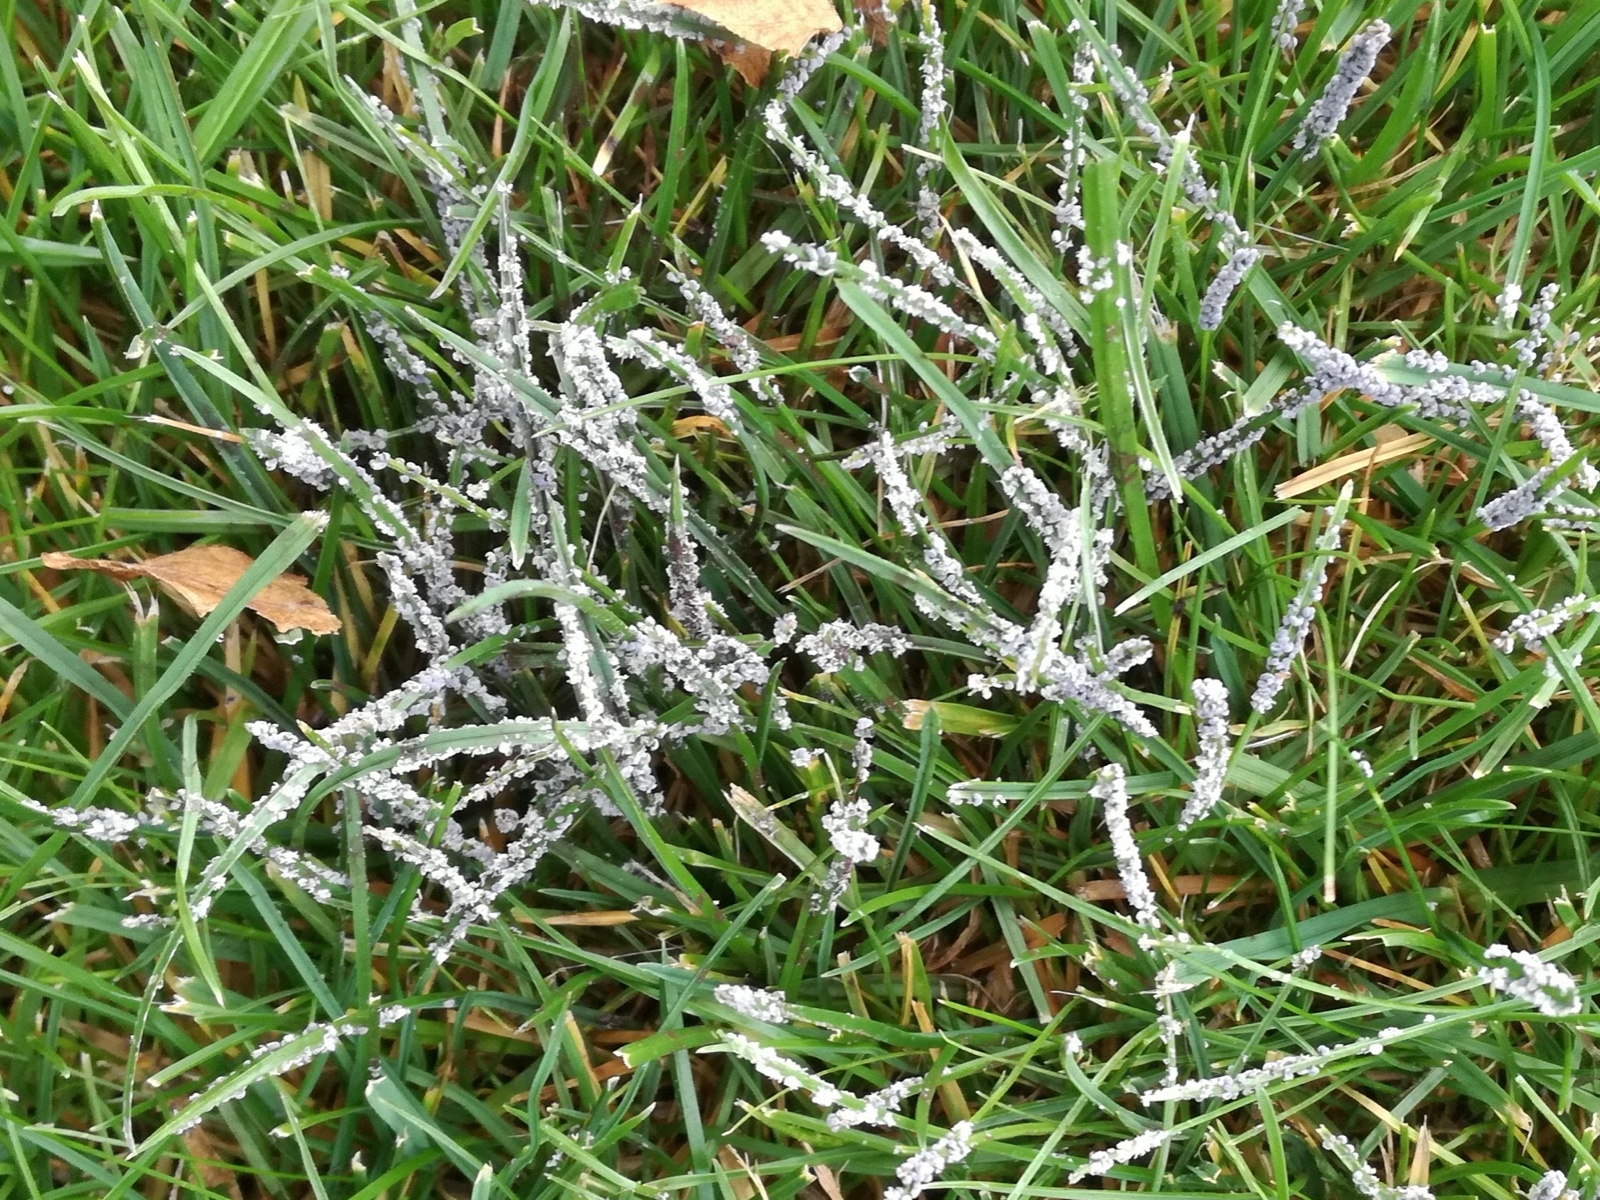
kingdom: Protozoa
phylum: Mycetozoa
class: Myxomycetes
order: Physarales
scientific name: Physarales
